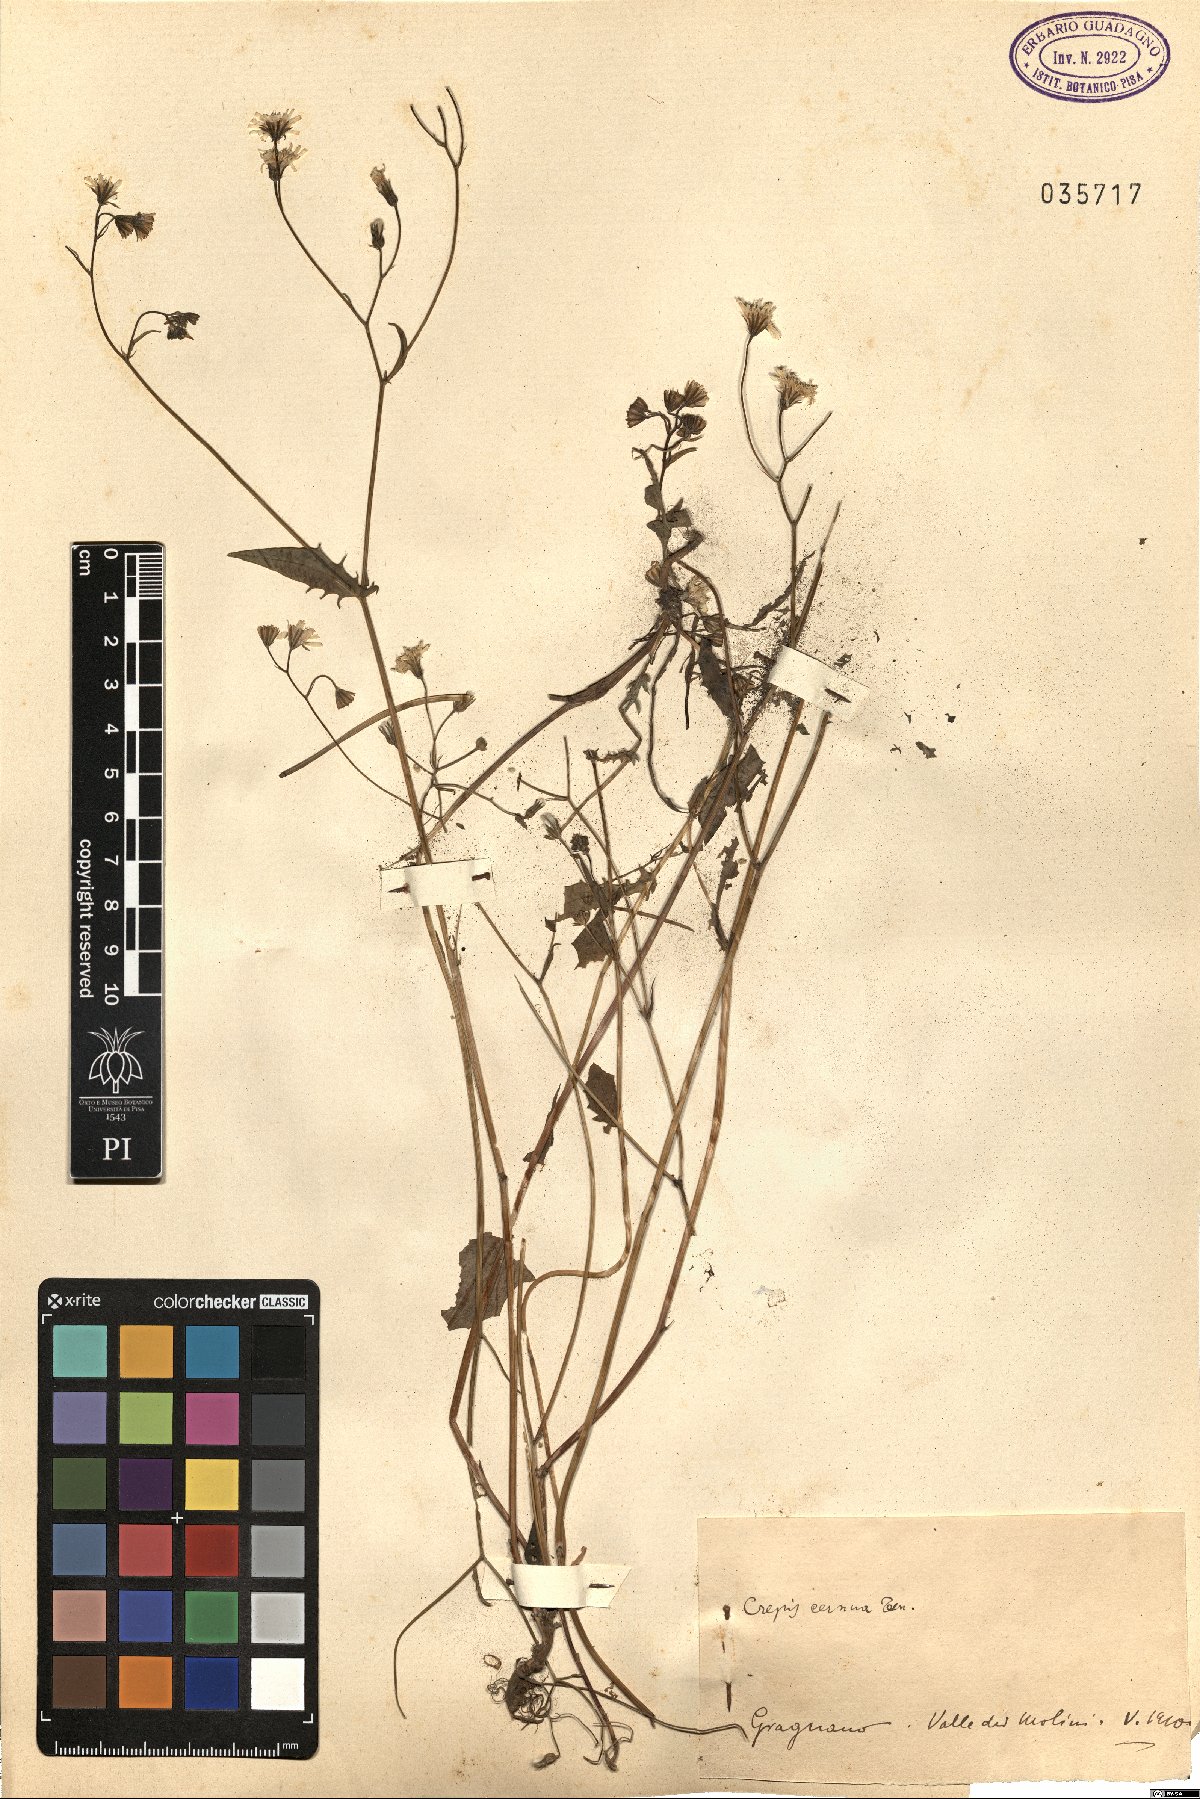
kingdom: Plantae
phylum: Tracheophyta
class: Magnoliopsida
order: Asterales
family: Asteraceae
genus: Crepis
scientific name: Crepis neglecta
